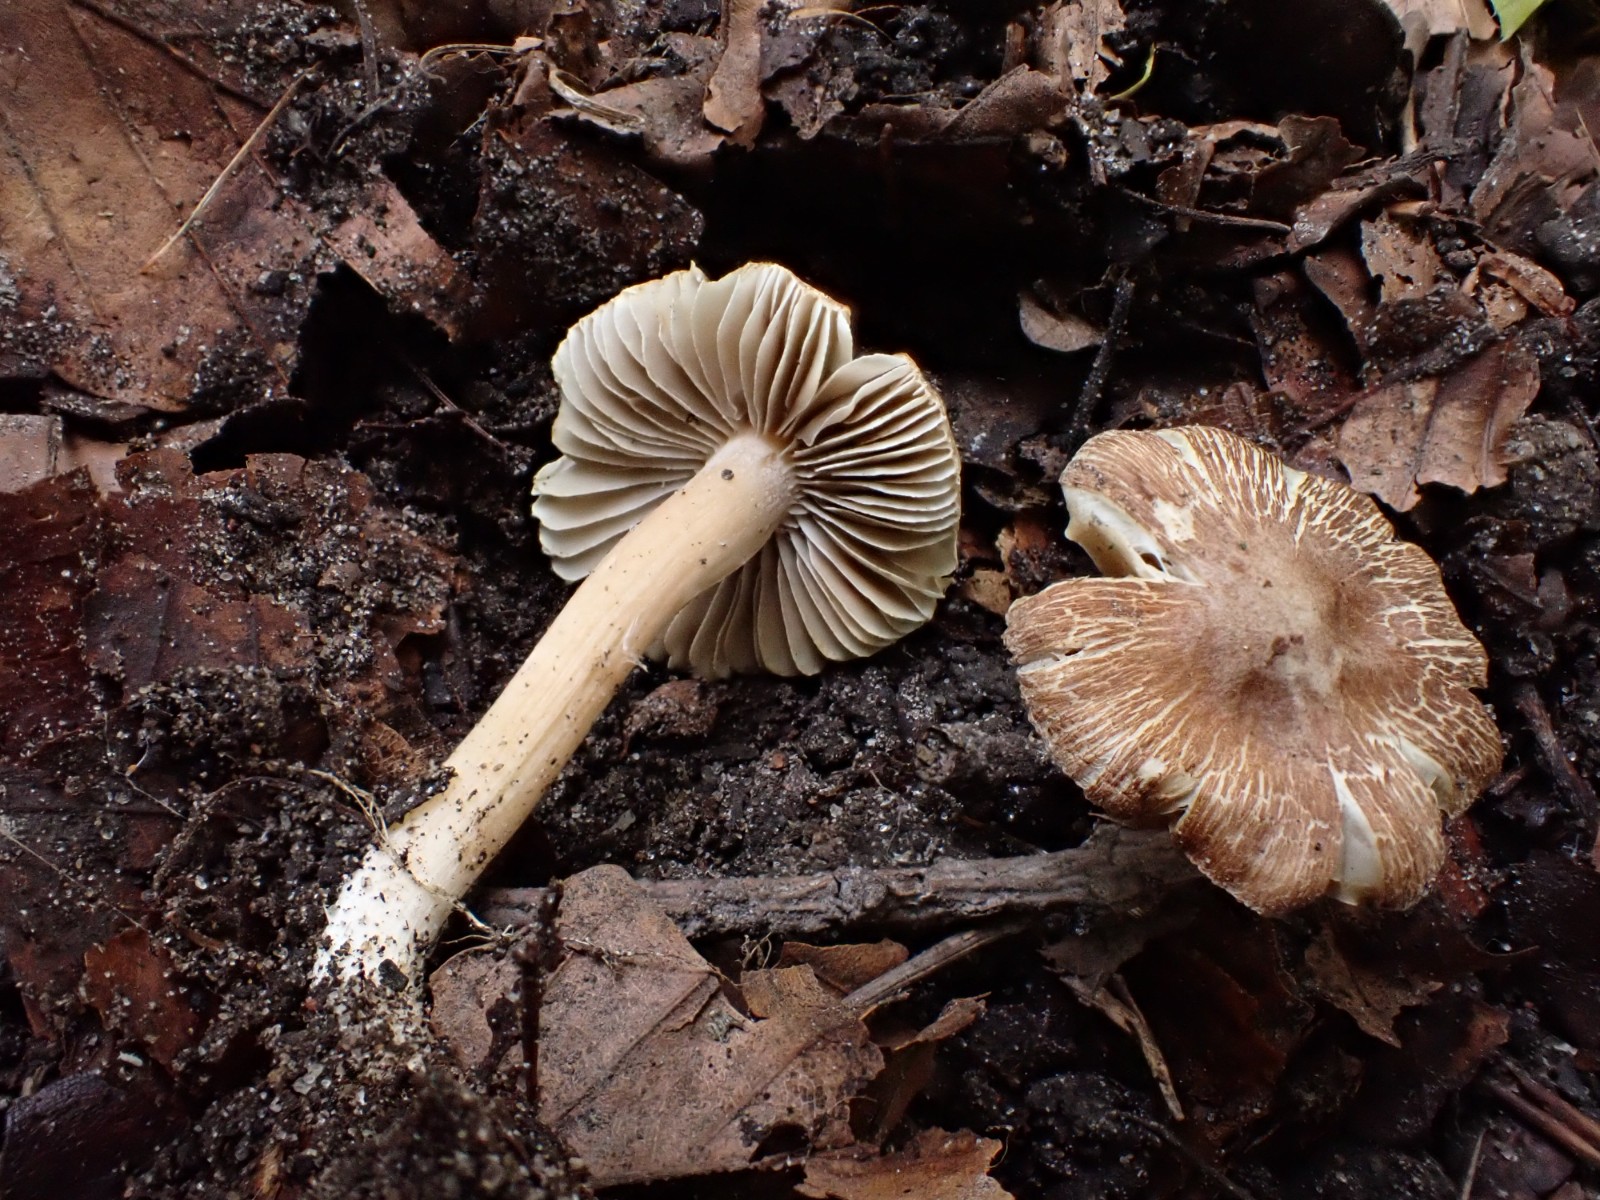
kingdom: Fungi
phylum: Basidiomycota
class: Agaricomycetes
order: Agaricales
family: Inocybaceae
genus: Inocybe
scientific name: Inocybe
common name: trævlhat
